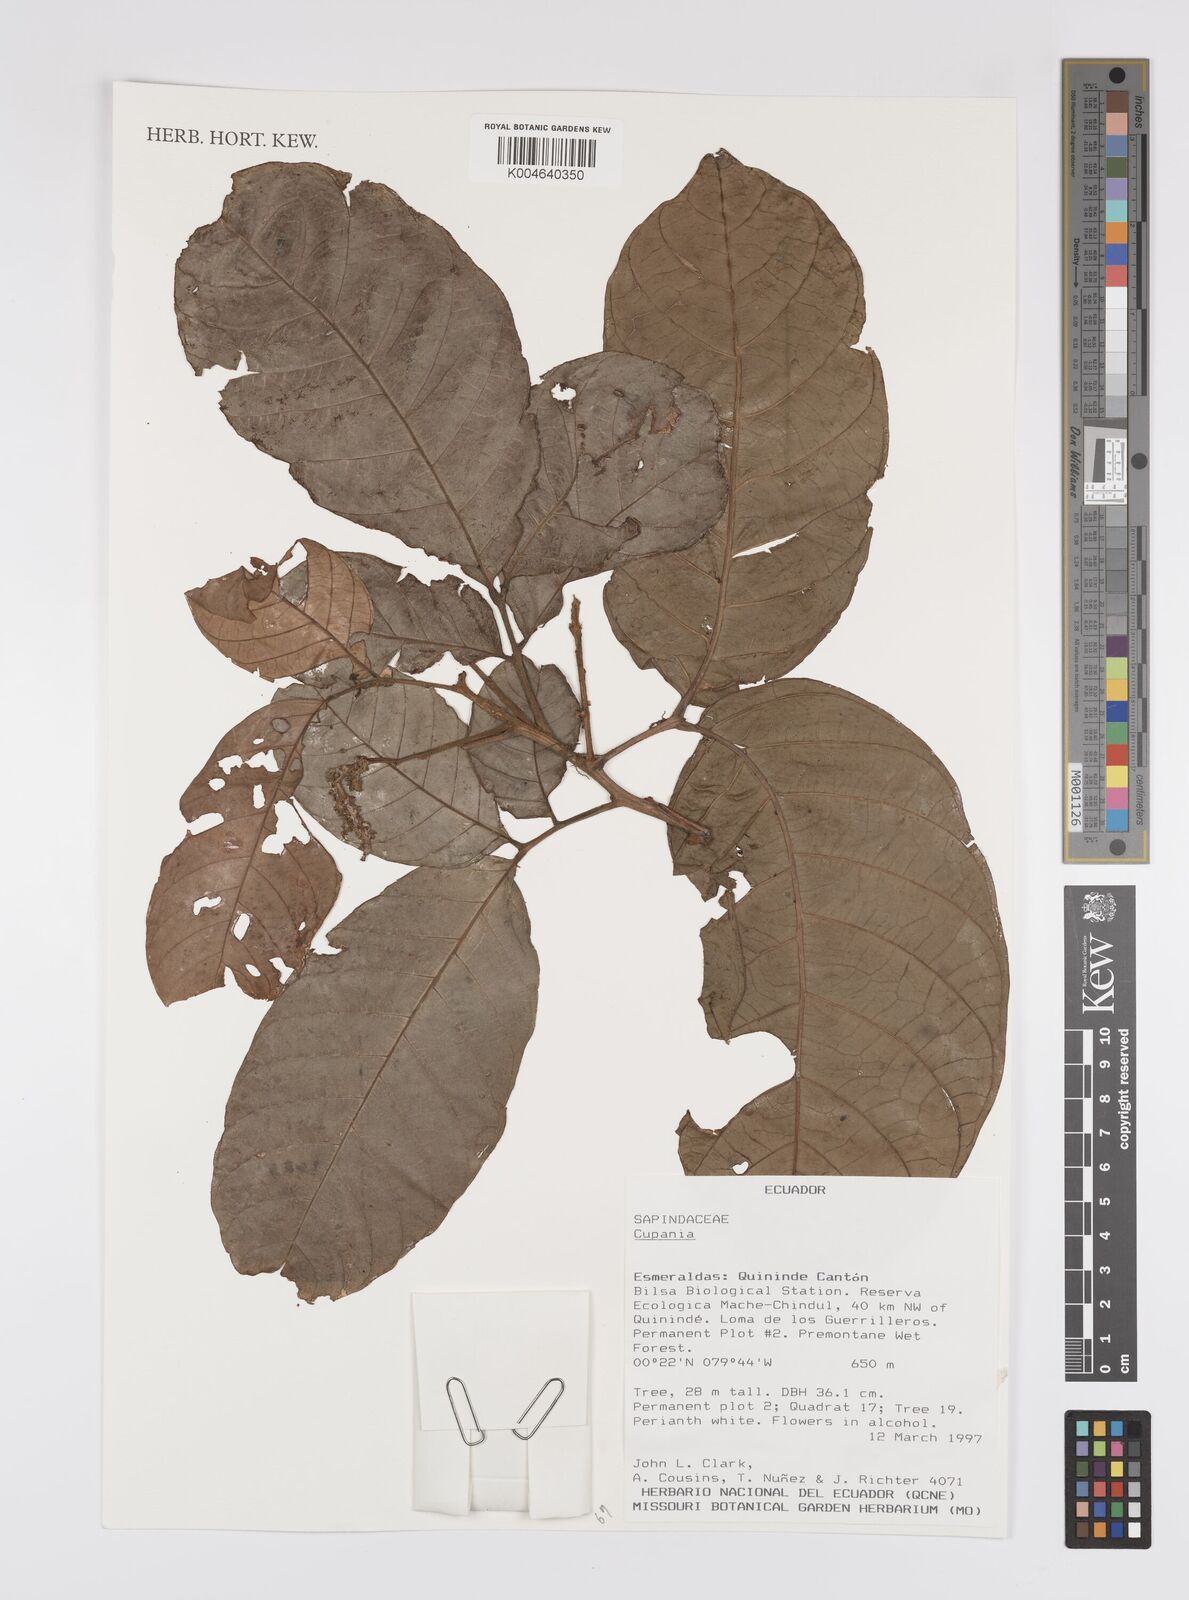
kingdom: Plantae
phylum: Tracheophyta
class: Magnoliopsida
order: Sapindales
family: Sapindaceae
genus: Cupania
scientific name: Cupania
